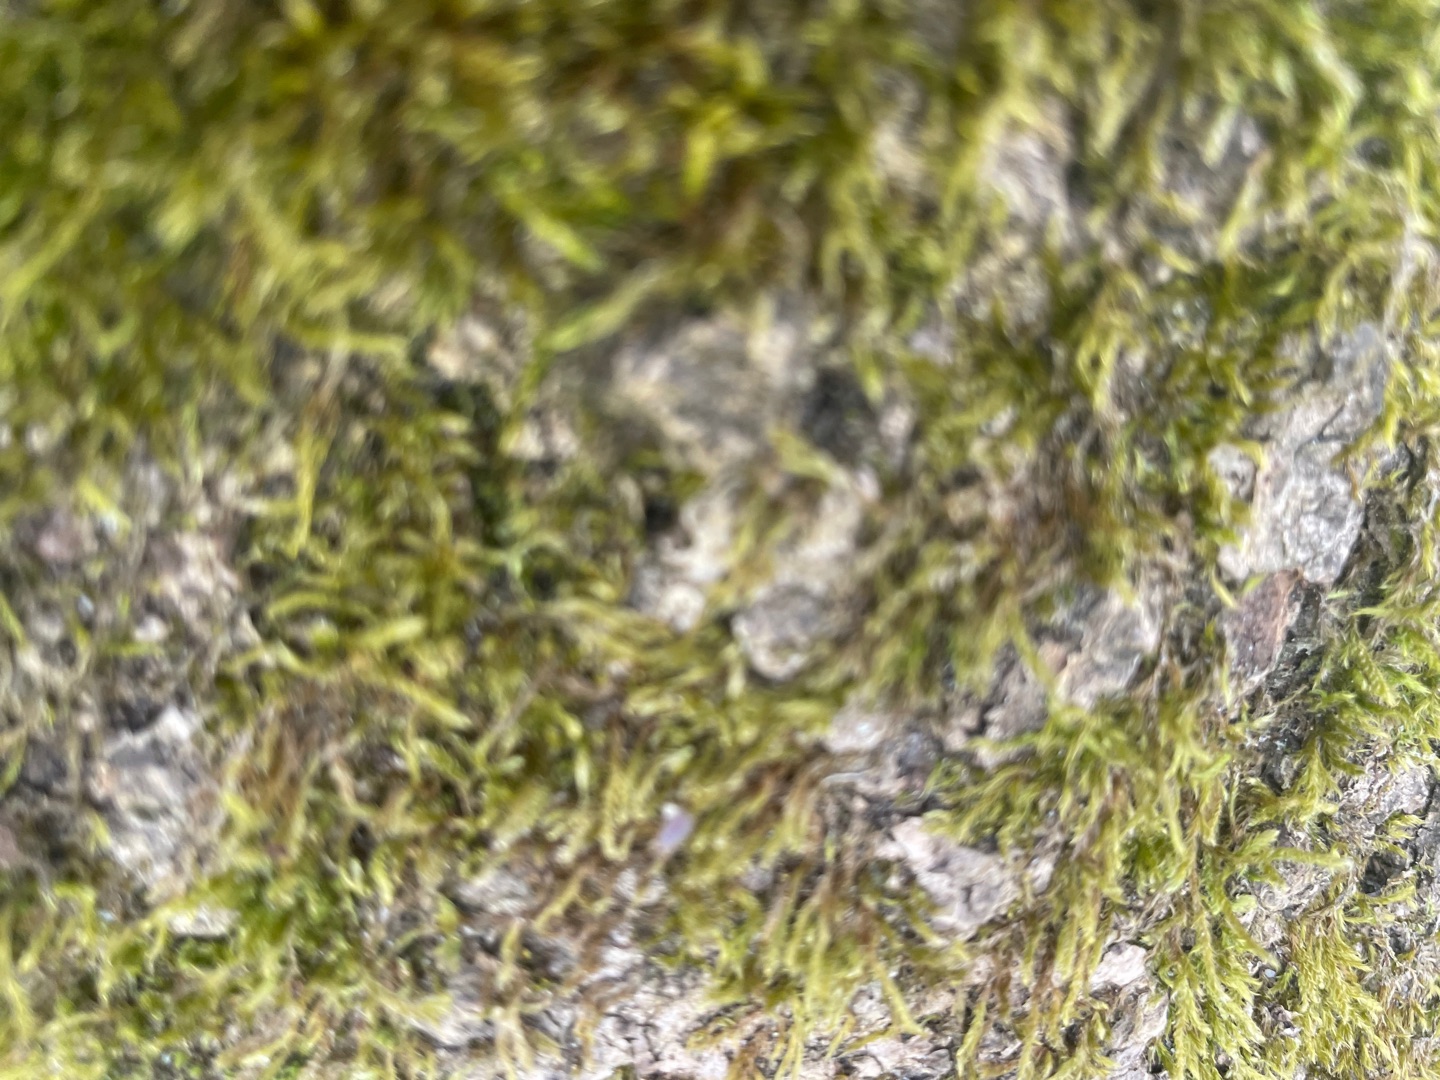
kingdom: Plantae
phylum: Bryophyta
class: Bryopsida
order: Hypnales
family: Hypnaceae
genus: Hypnum
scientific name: Hypnum
